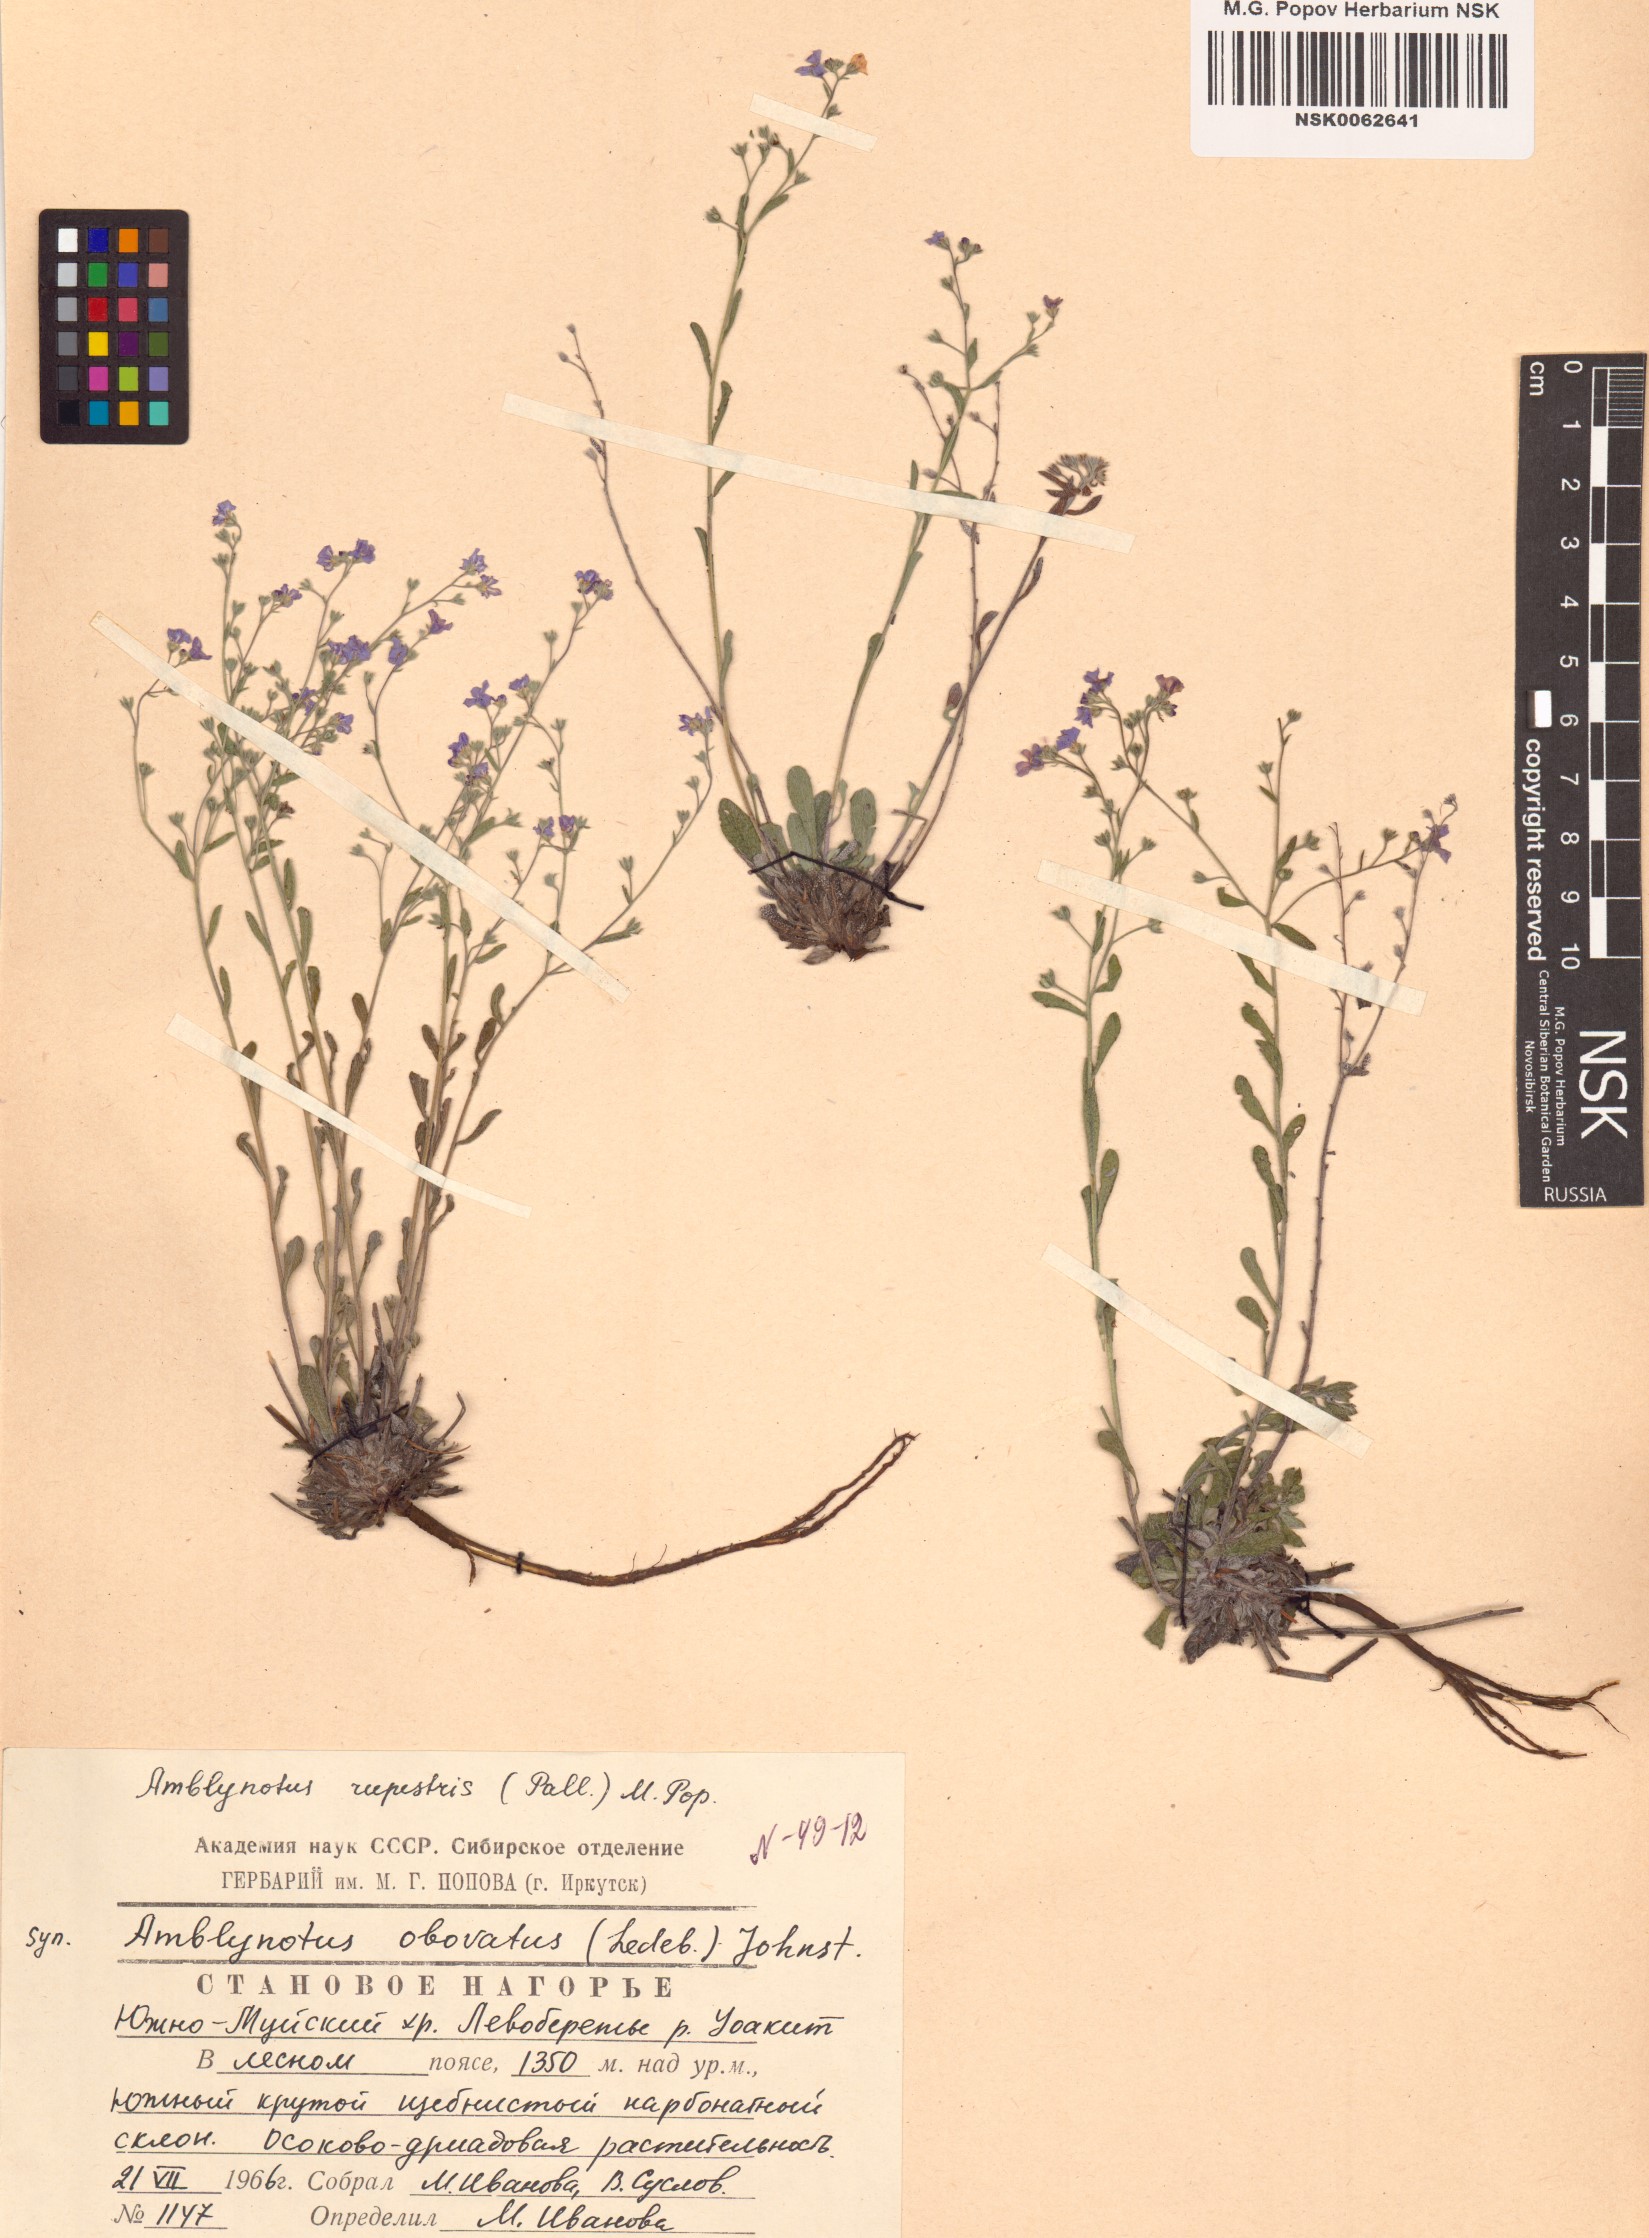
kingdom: Plantae
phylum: Tracheophyta
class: Magnoliopsida
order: Boraginales
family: Boraginaceae
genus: Eritrichium
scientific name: Eritrichium rupestre
